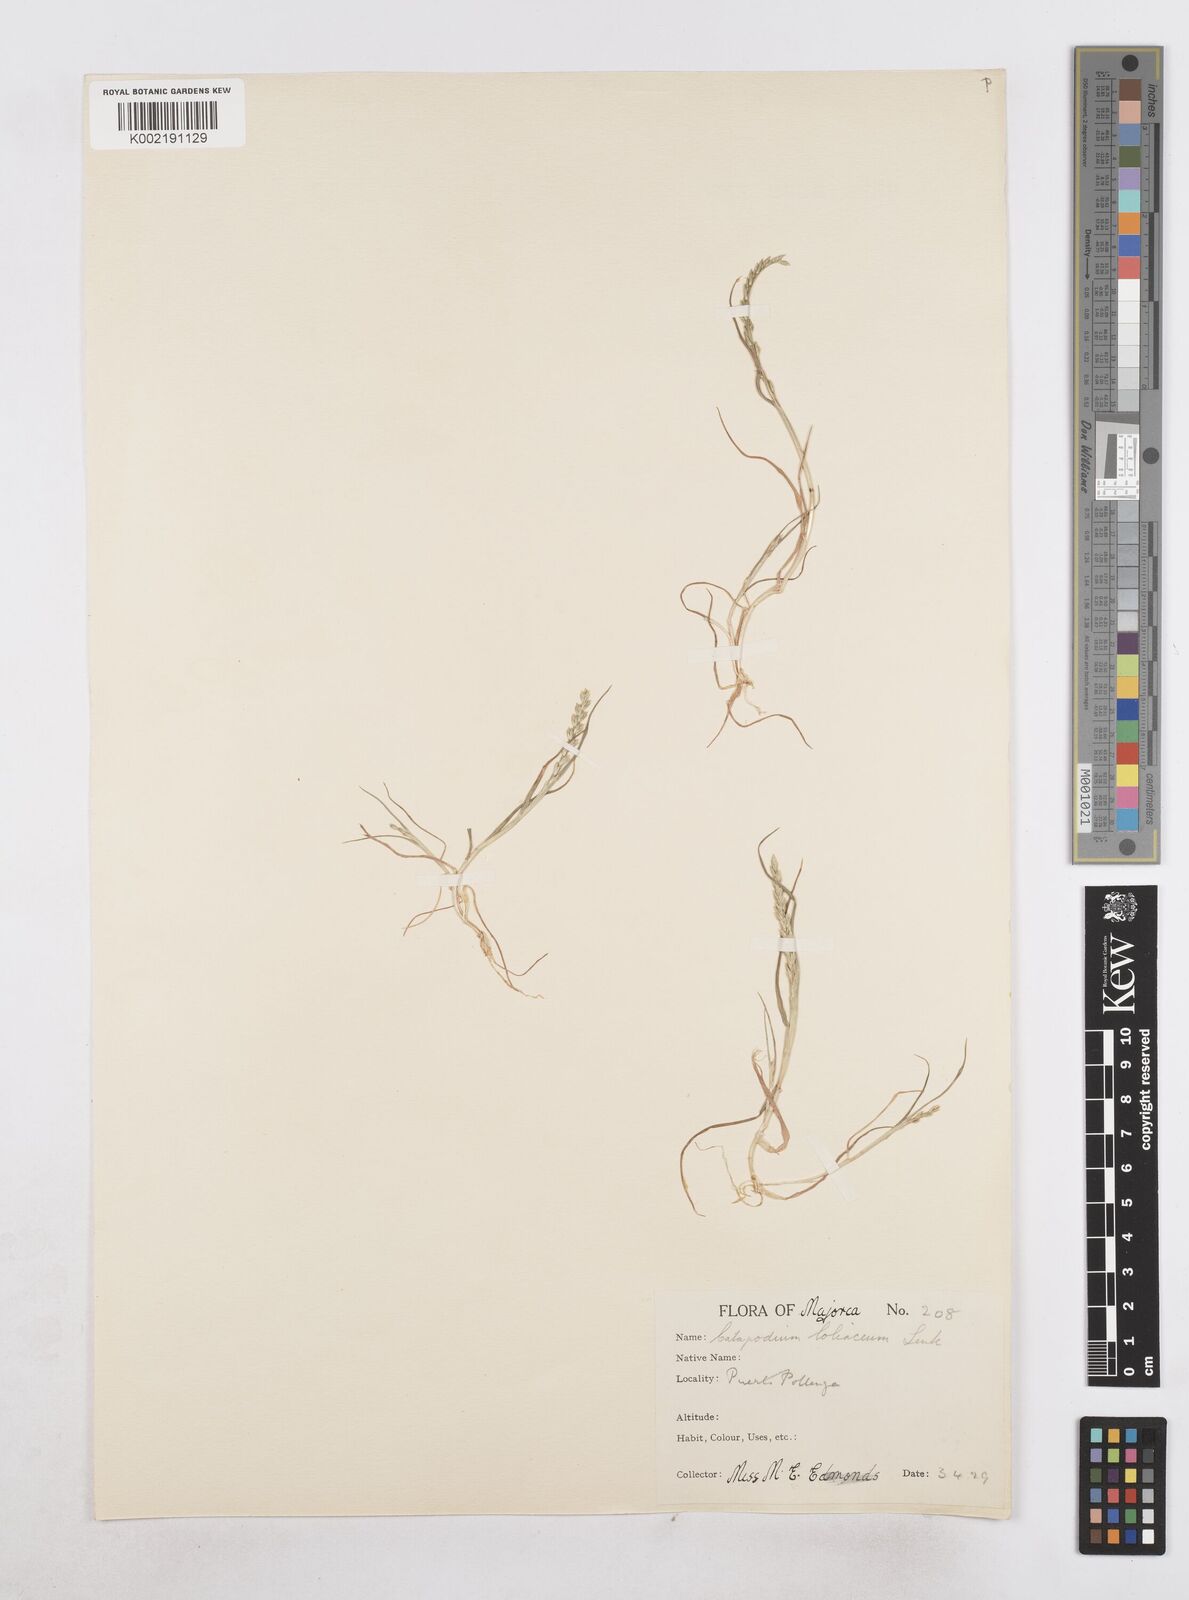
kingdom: Plantae
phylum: Tracheophyta
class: Liliopsida
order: Poales
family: Poaceae
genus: Catapodium
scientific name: Catapodium marinum
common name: Sea fern-grass
